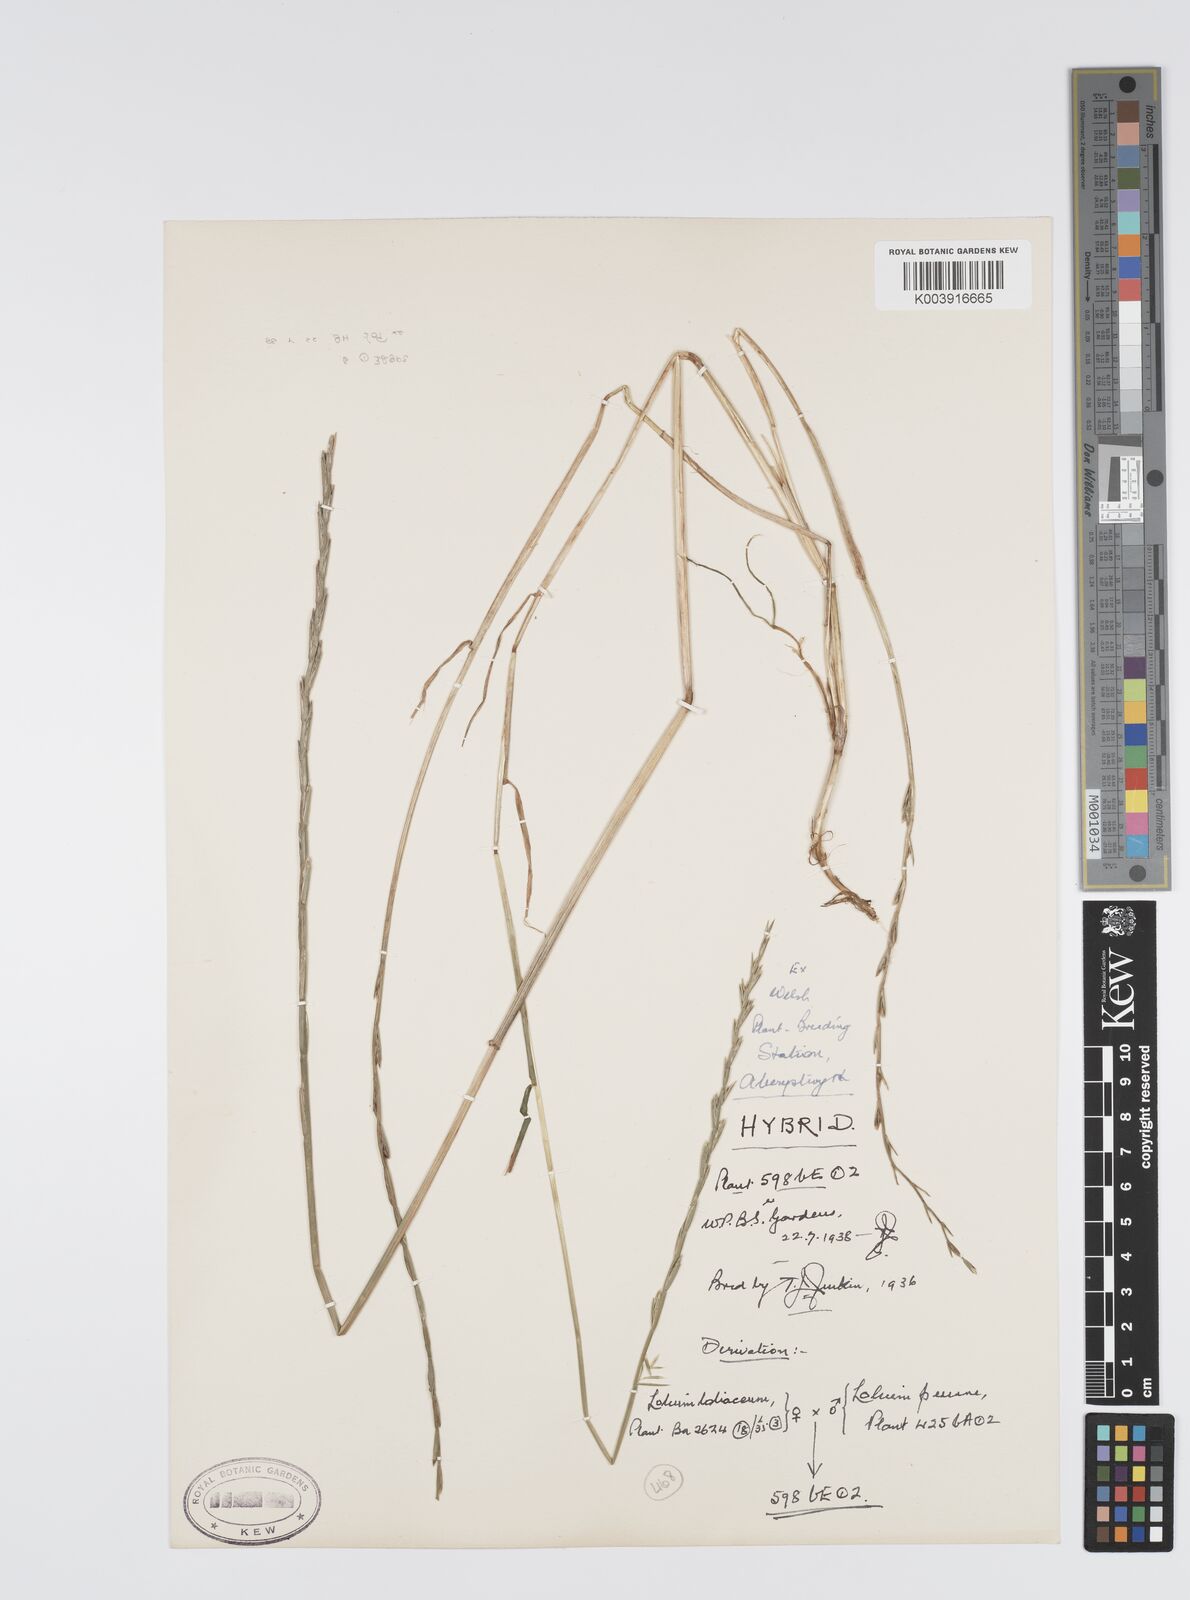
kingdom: Plantae
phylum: Tracheophyta
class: Liliopsida
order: Poales
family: Poaceae
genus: Lolium
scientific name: Lolium perenne
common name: Perennial ryegrass
